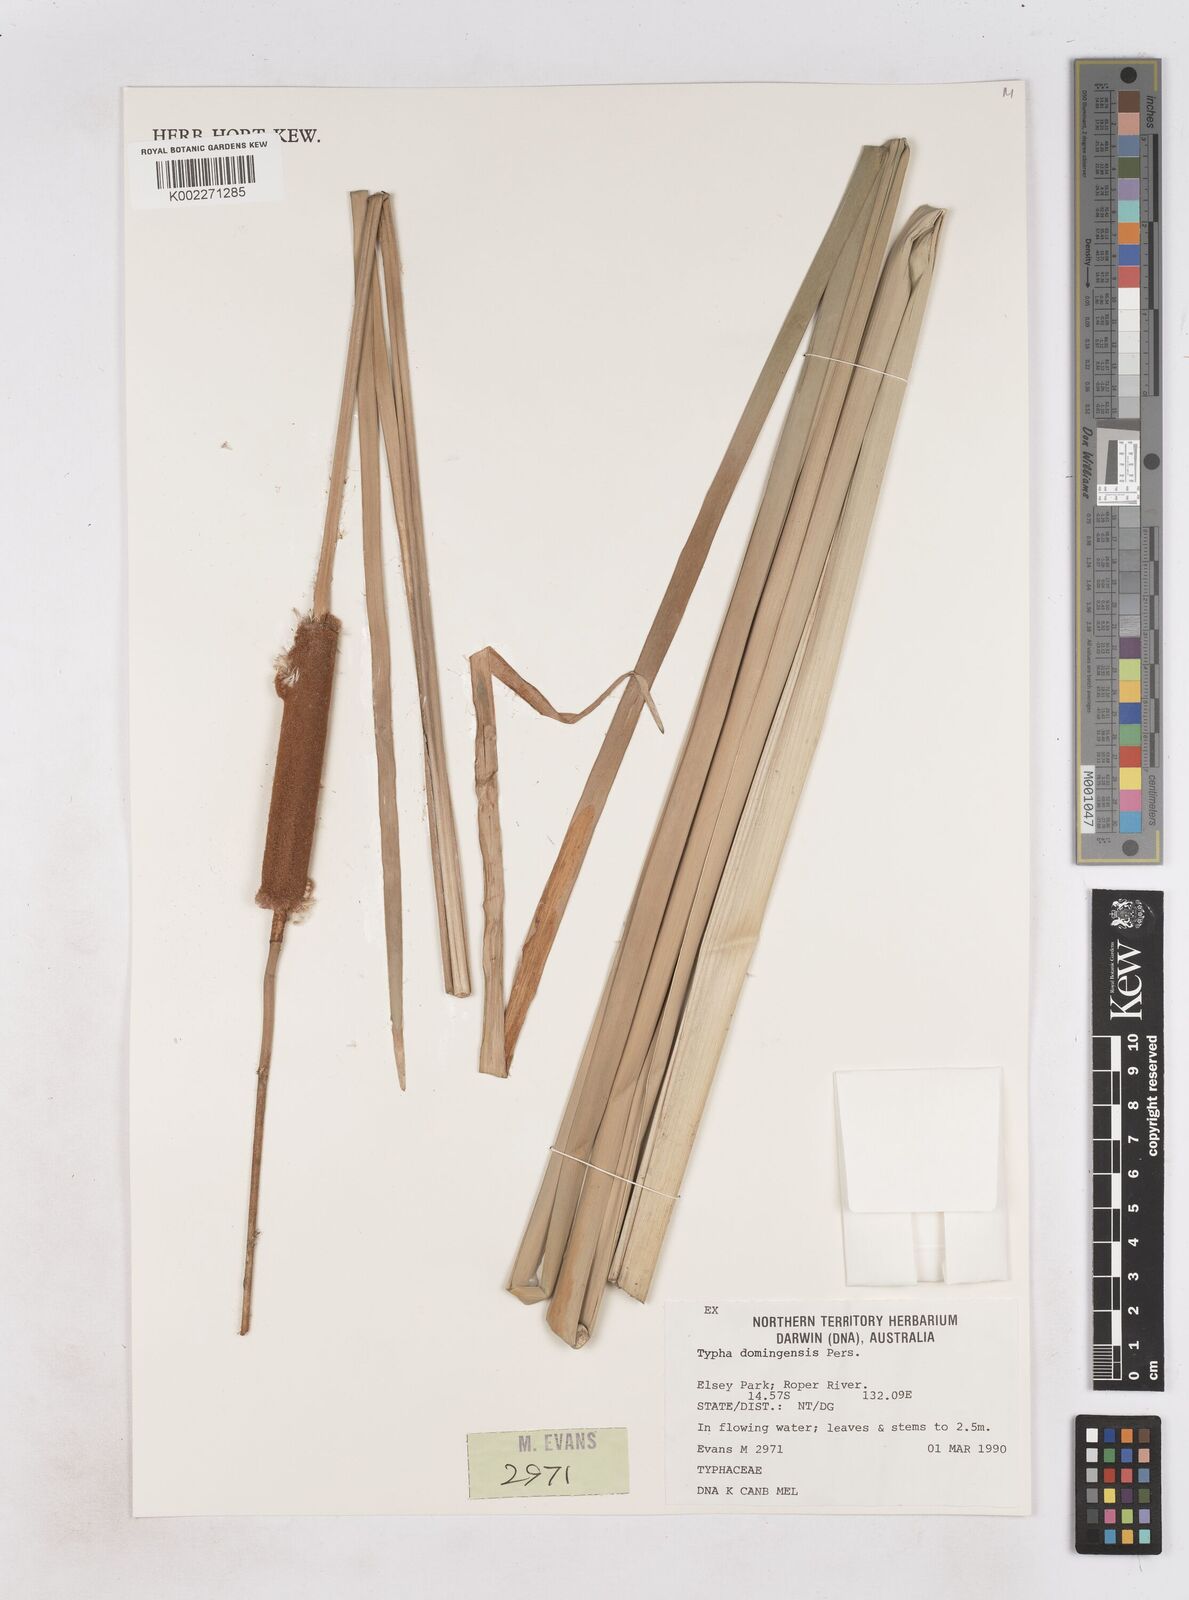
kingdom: Plantae
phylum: Tracheophyta
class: Liliopsida
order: Poales
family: Typhaceae
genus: Typha
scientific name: Typha domingensis
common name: Southern cattail
